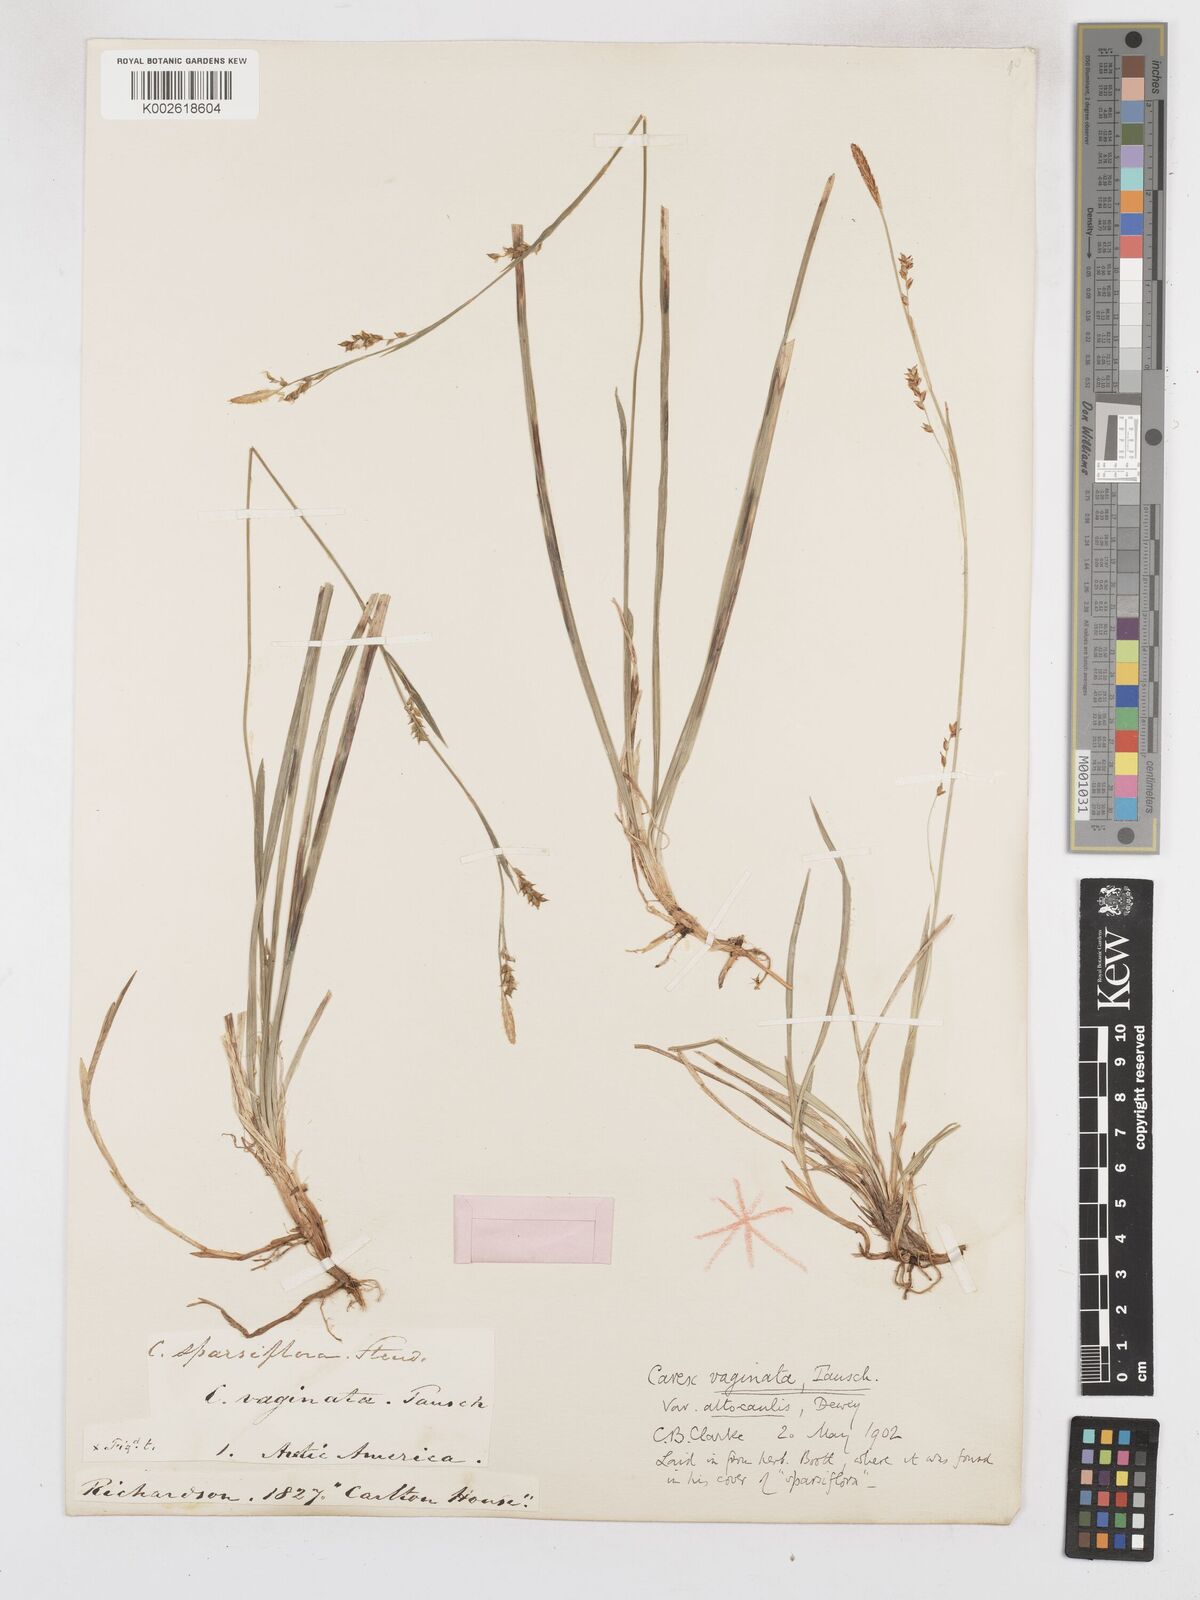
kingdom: Plantae
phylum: Tracheophyta
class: Liliopsida
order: Poales
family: Cyperaceae
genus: Carex
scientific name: Carex vaginata
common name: Sheathed sedge
